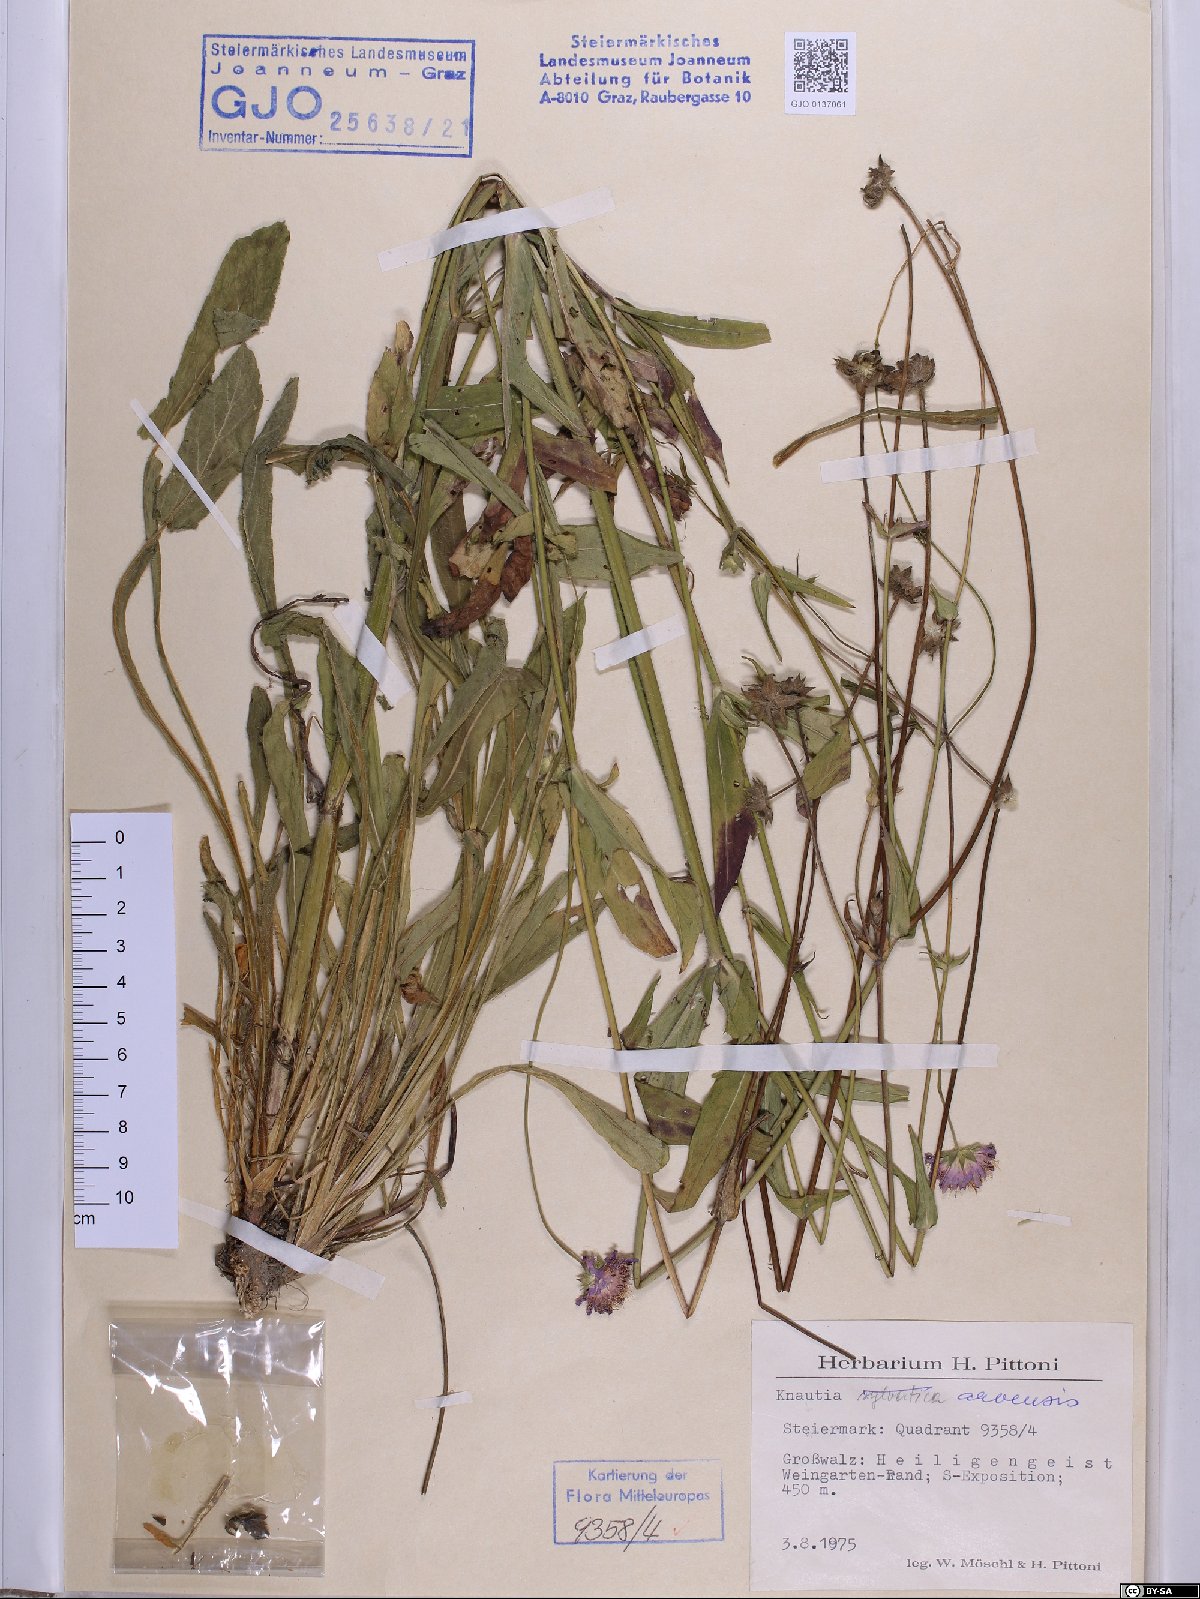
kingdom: Plantae
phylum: Tracheophyta
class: Magnoliopsida
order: Dipsacales
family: Caprifoliaceae
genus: Knautia
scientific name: Knautia arvensis
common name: Field scabiosa
